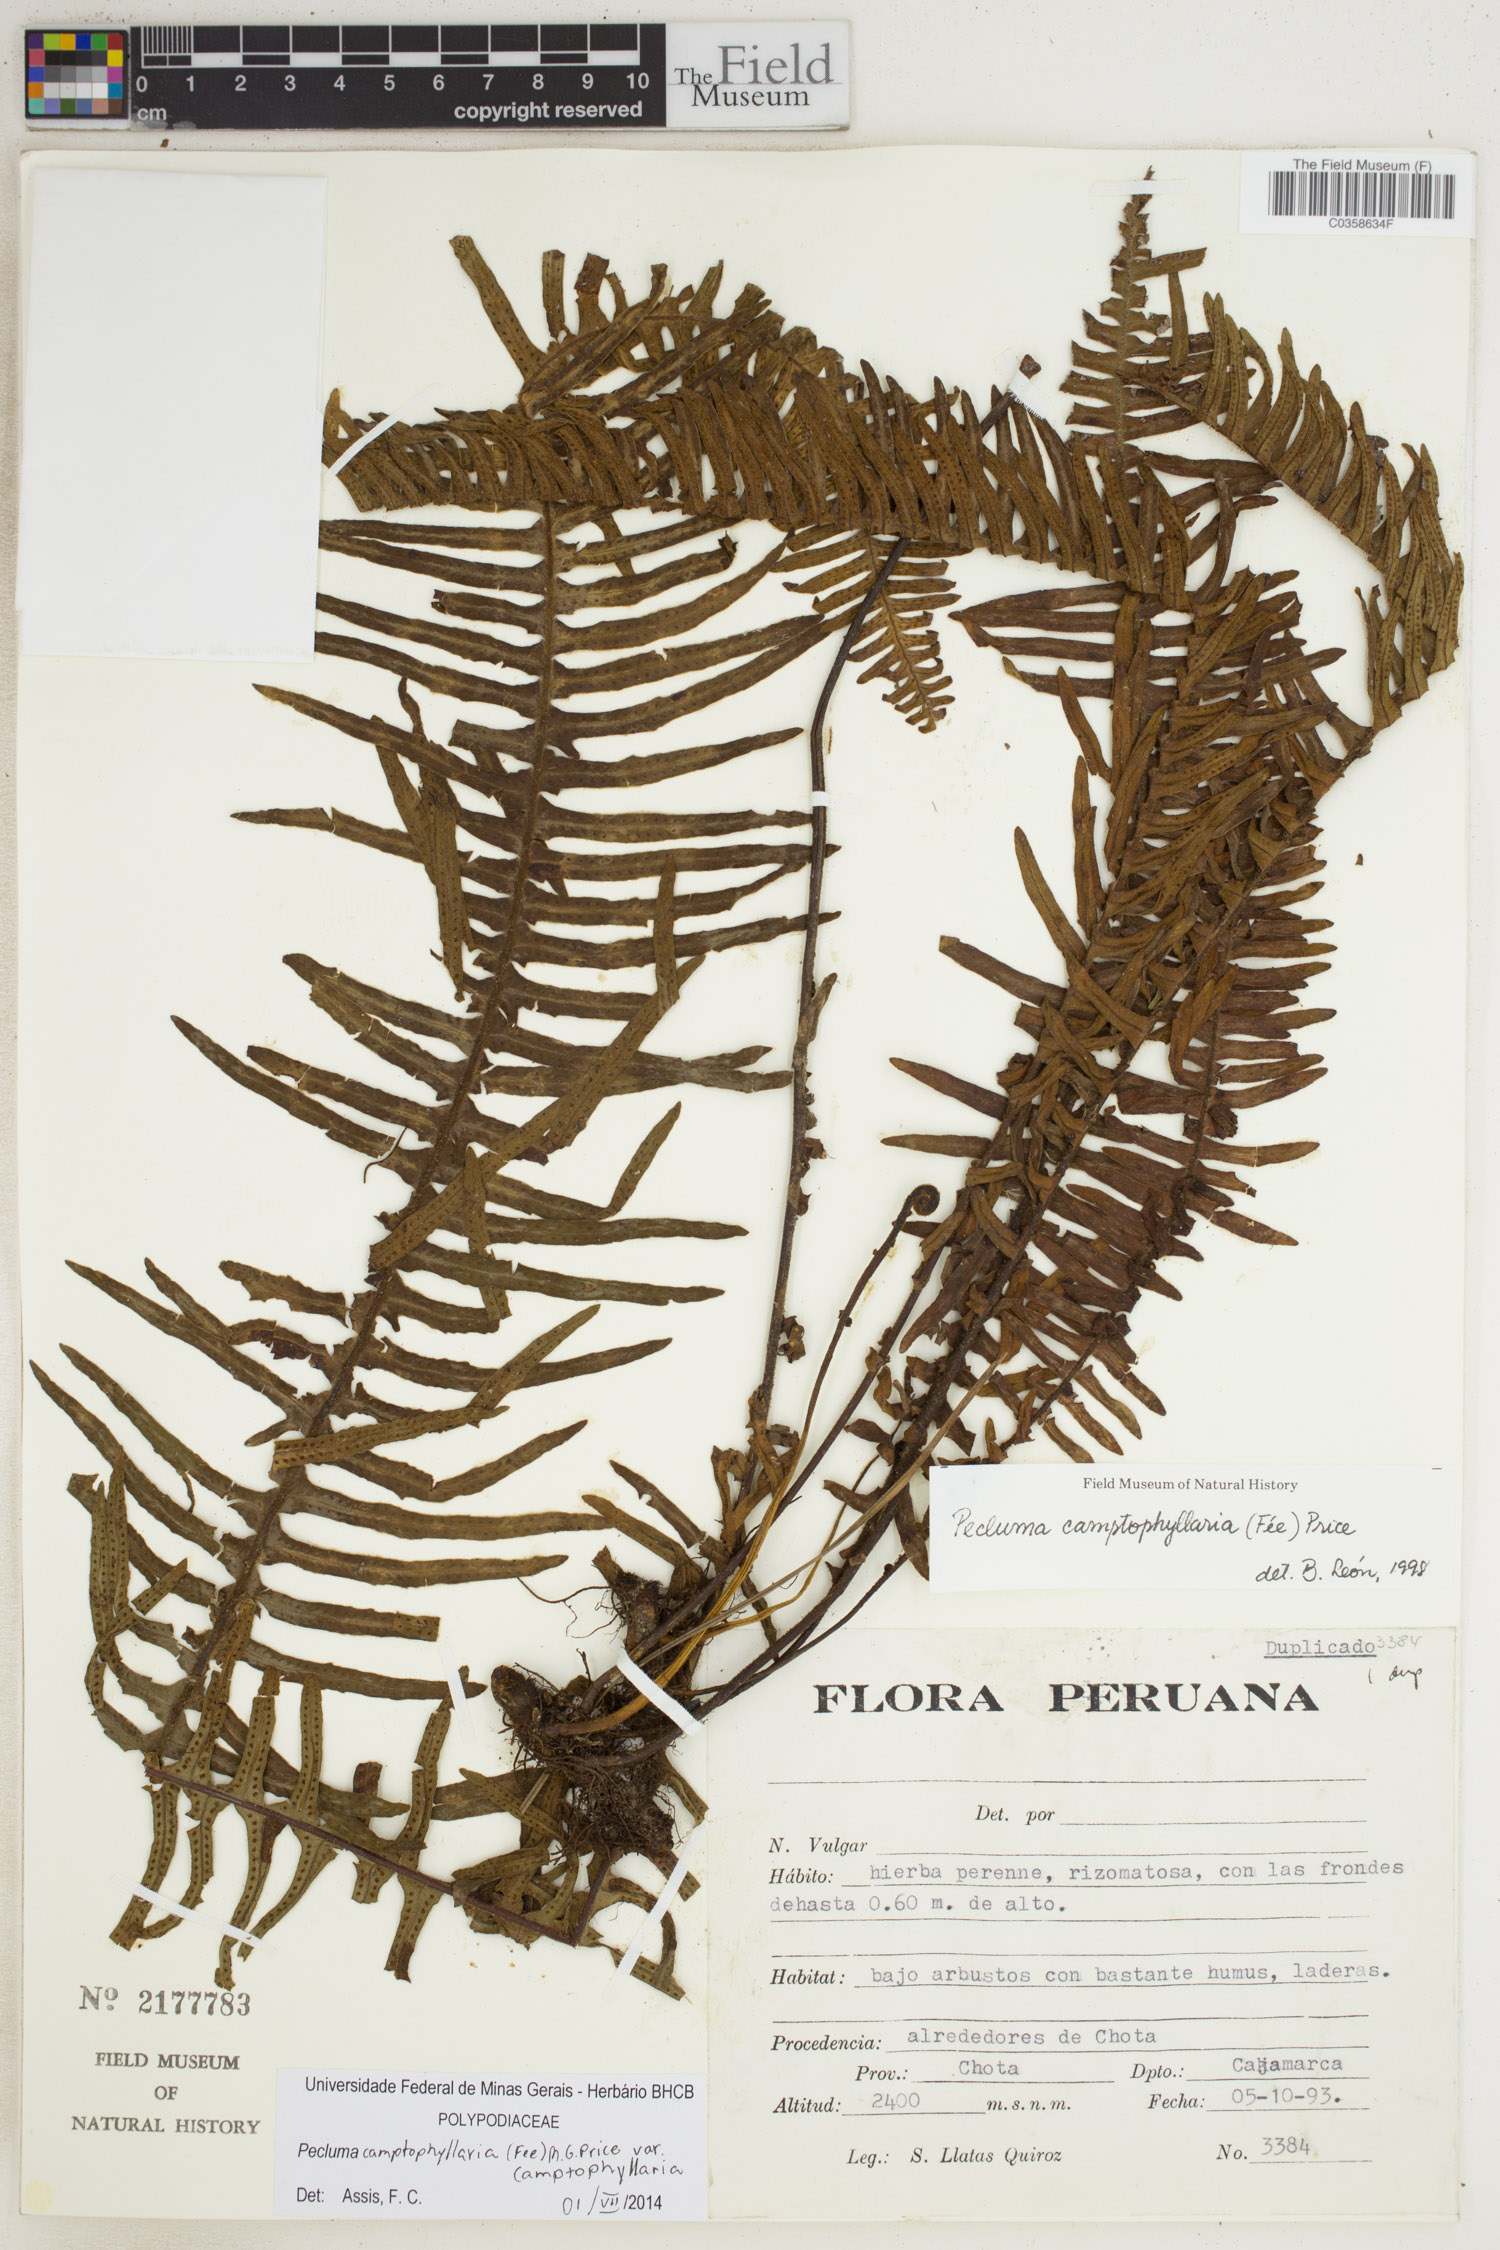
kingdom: Plantae
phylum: Tracheophyta
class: Polypodiopsida
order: Polypodiales
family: Polypodiaceae
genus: Pecluma
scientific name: Pecluma camptophyllaria
